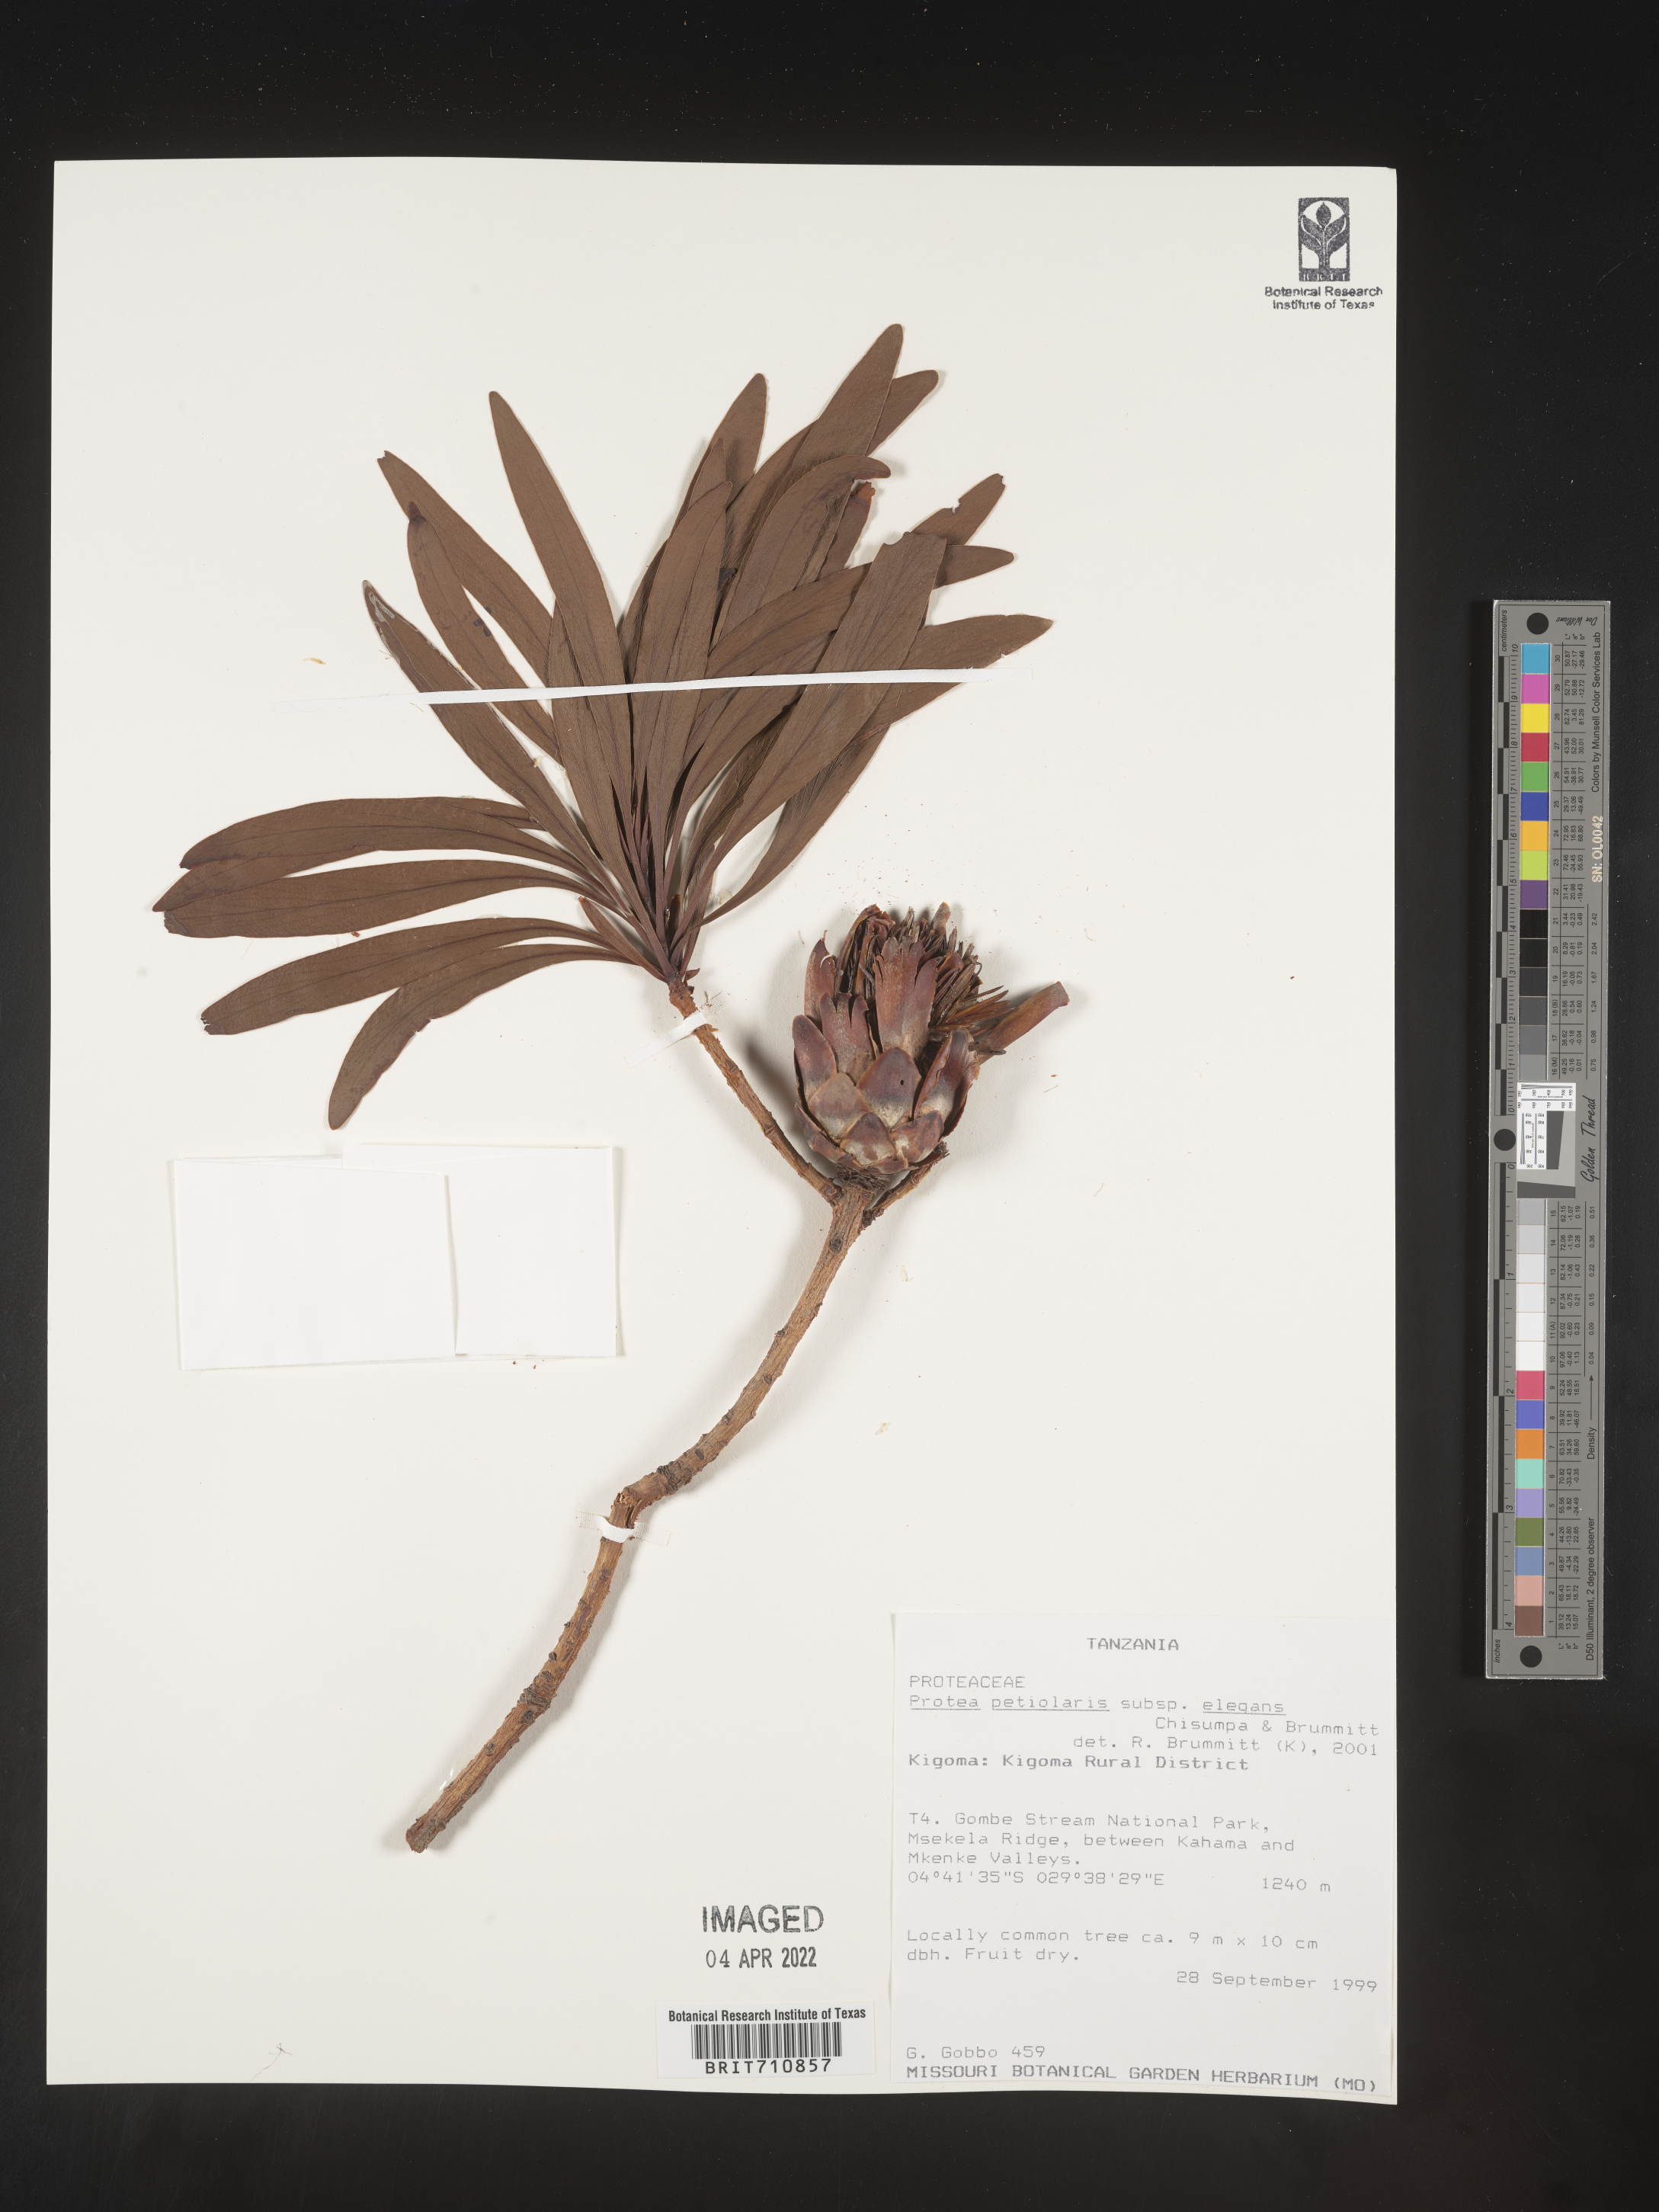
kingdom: Plantae
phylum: Tracheophyta
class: Magnoliopsida
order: Proteales
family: Proteaceae
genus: Protea
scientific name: Protea
